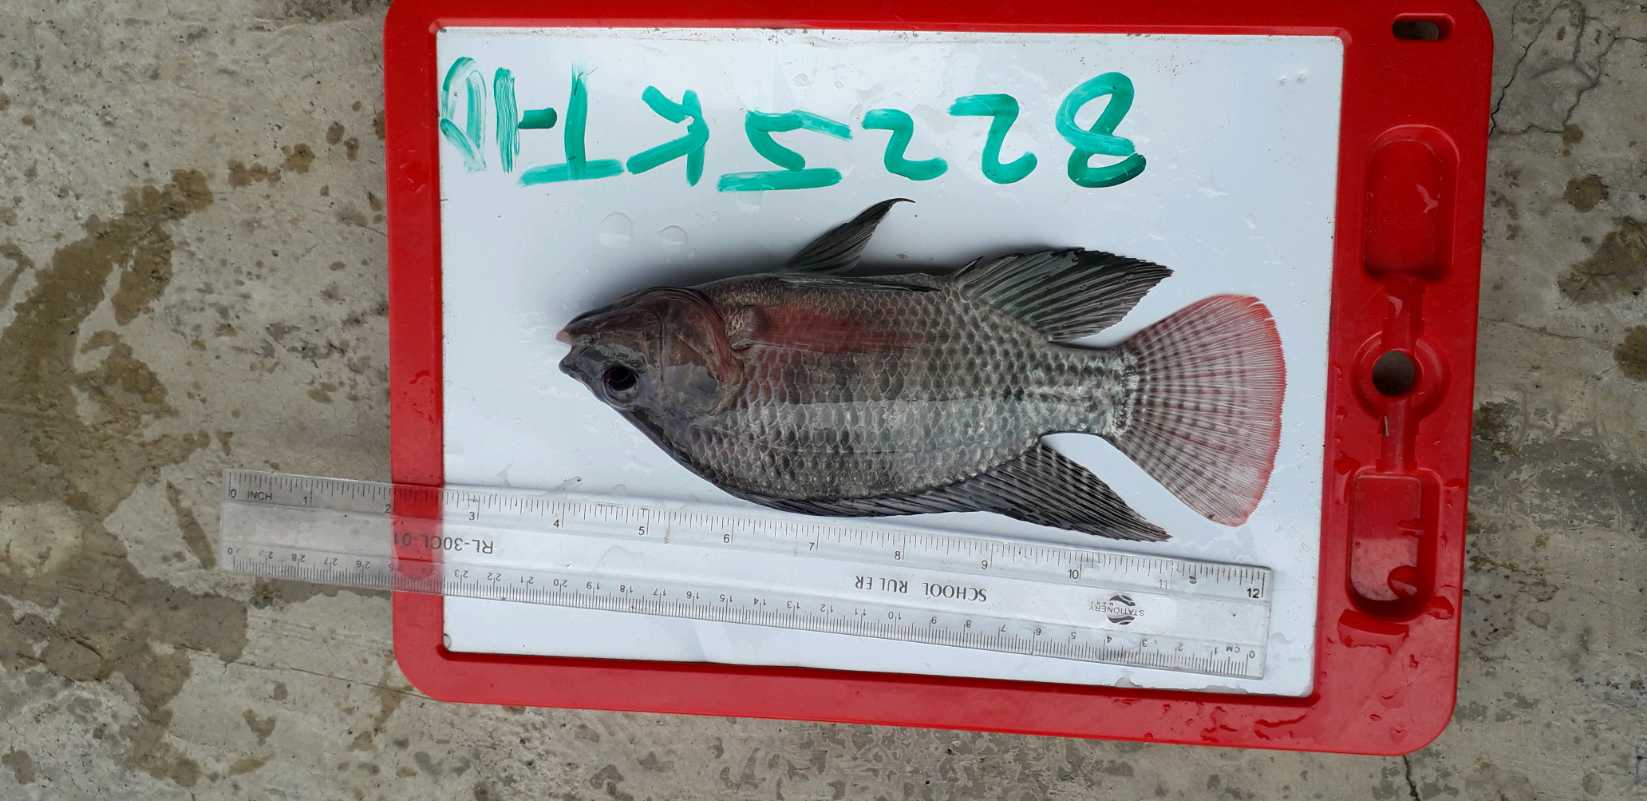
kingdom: Animalia
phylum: Chordata
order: Perciformes
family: Cichlidae
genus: Oreochromis
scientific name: Oreochromis niloticus
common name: Nile tilapia
